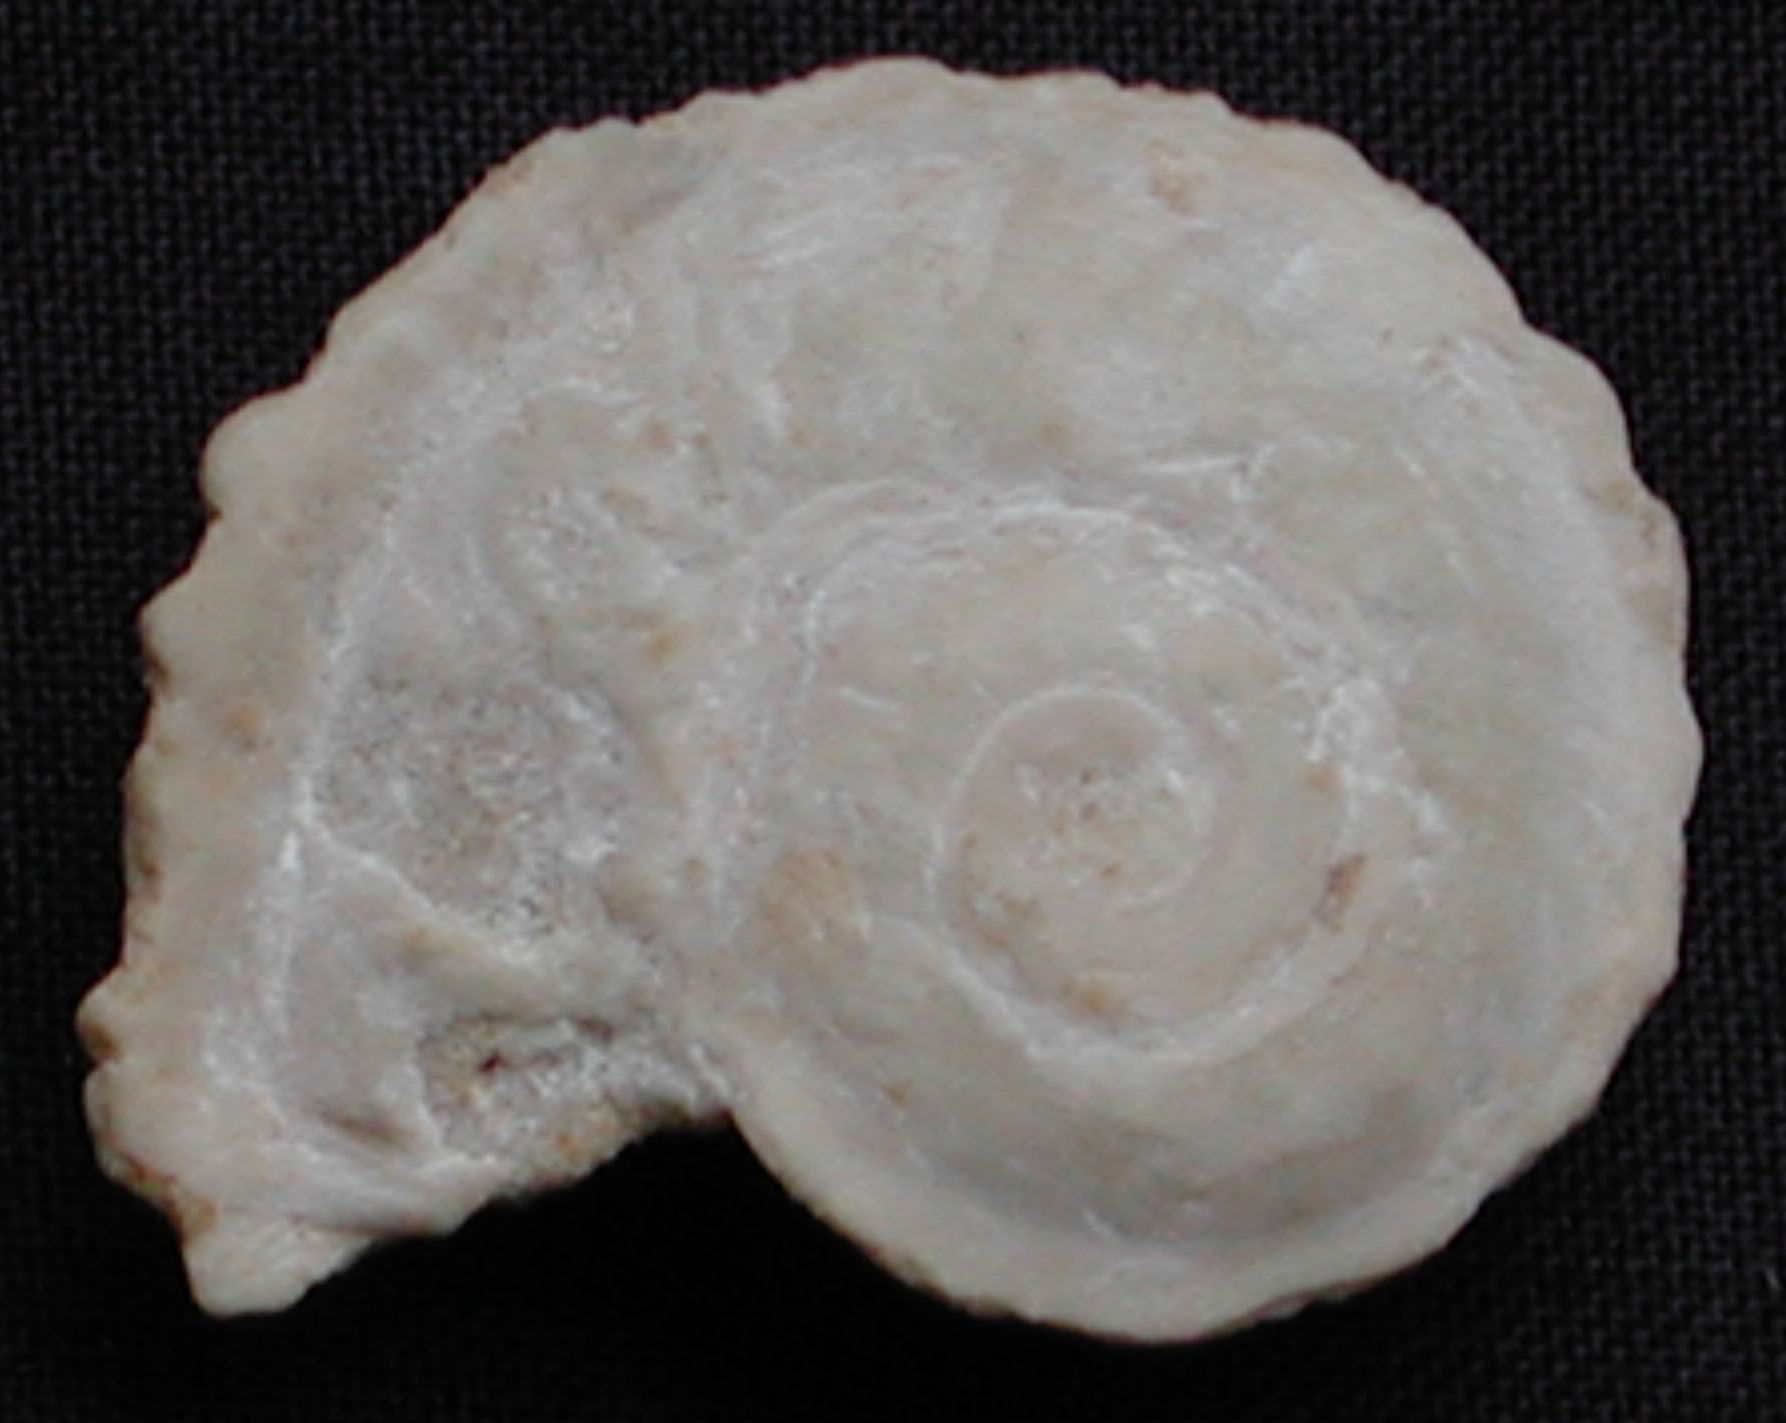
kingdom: Animalia
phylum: Mollusca
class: Gastropoda
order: Trochida
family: Turbinidae
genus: Meiersia
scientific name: Meiersia disarmata
